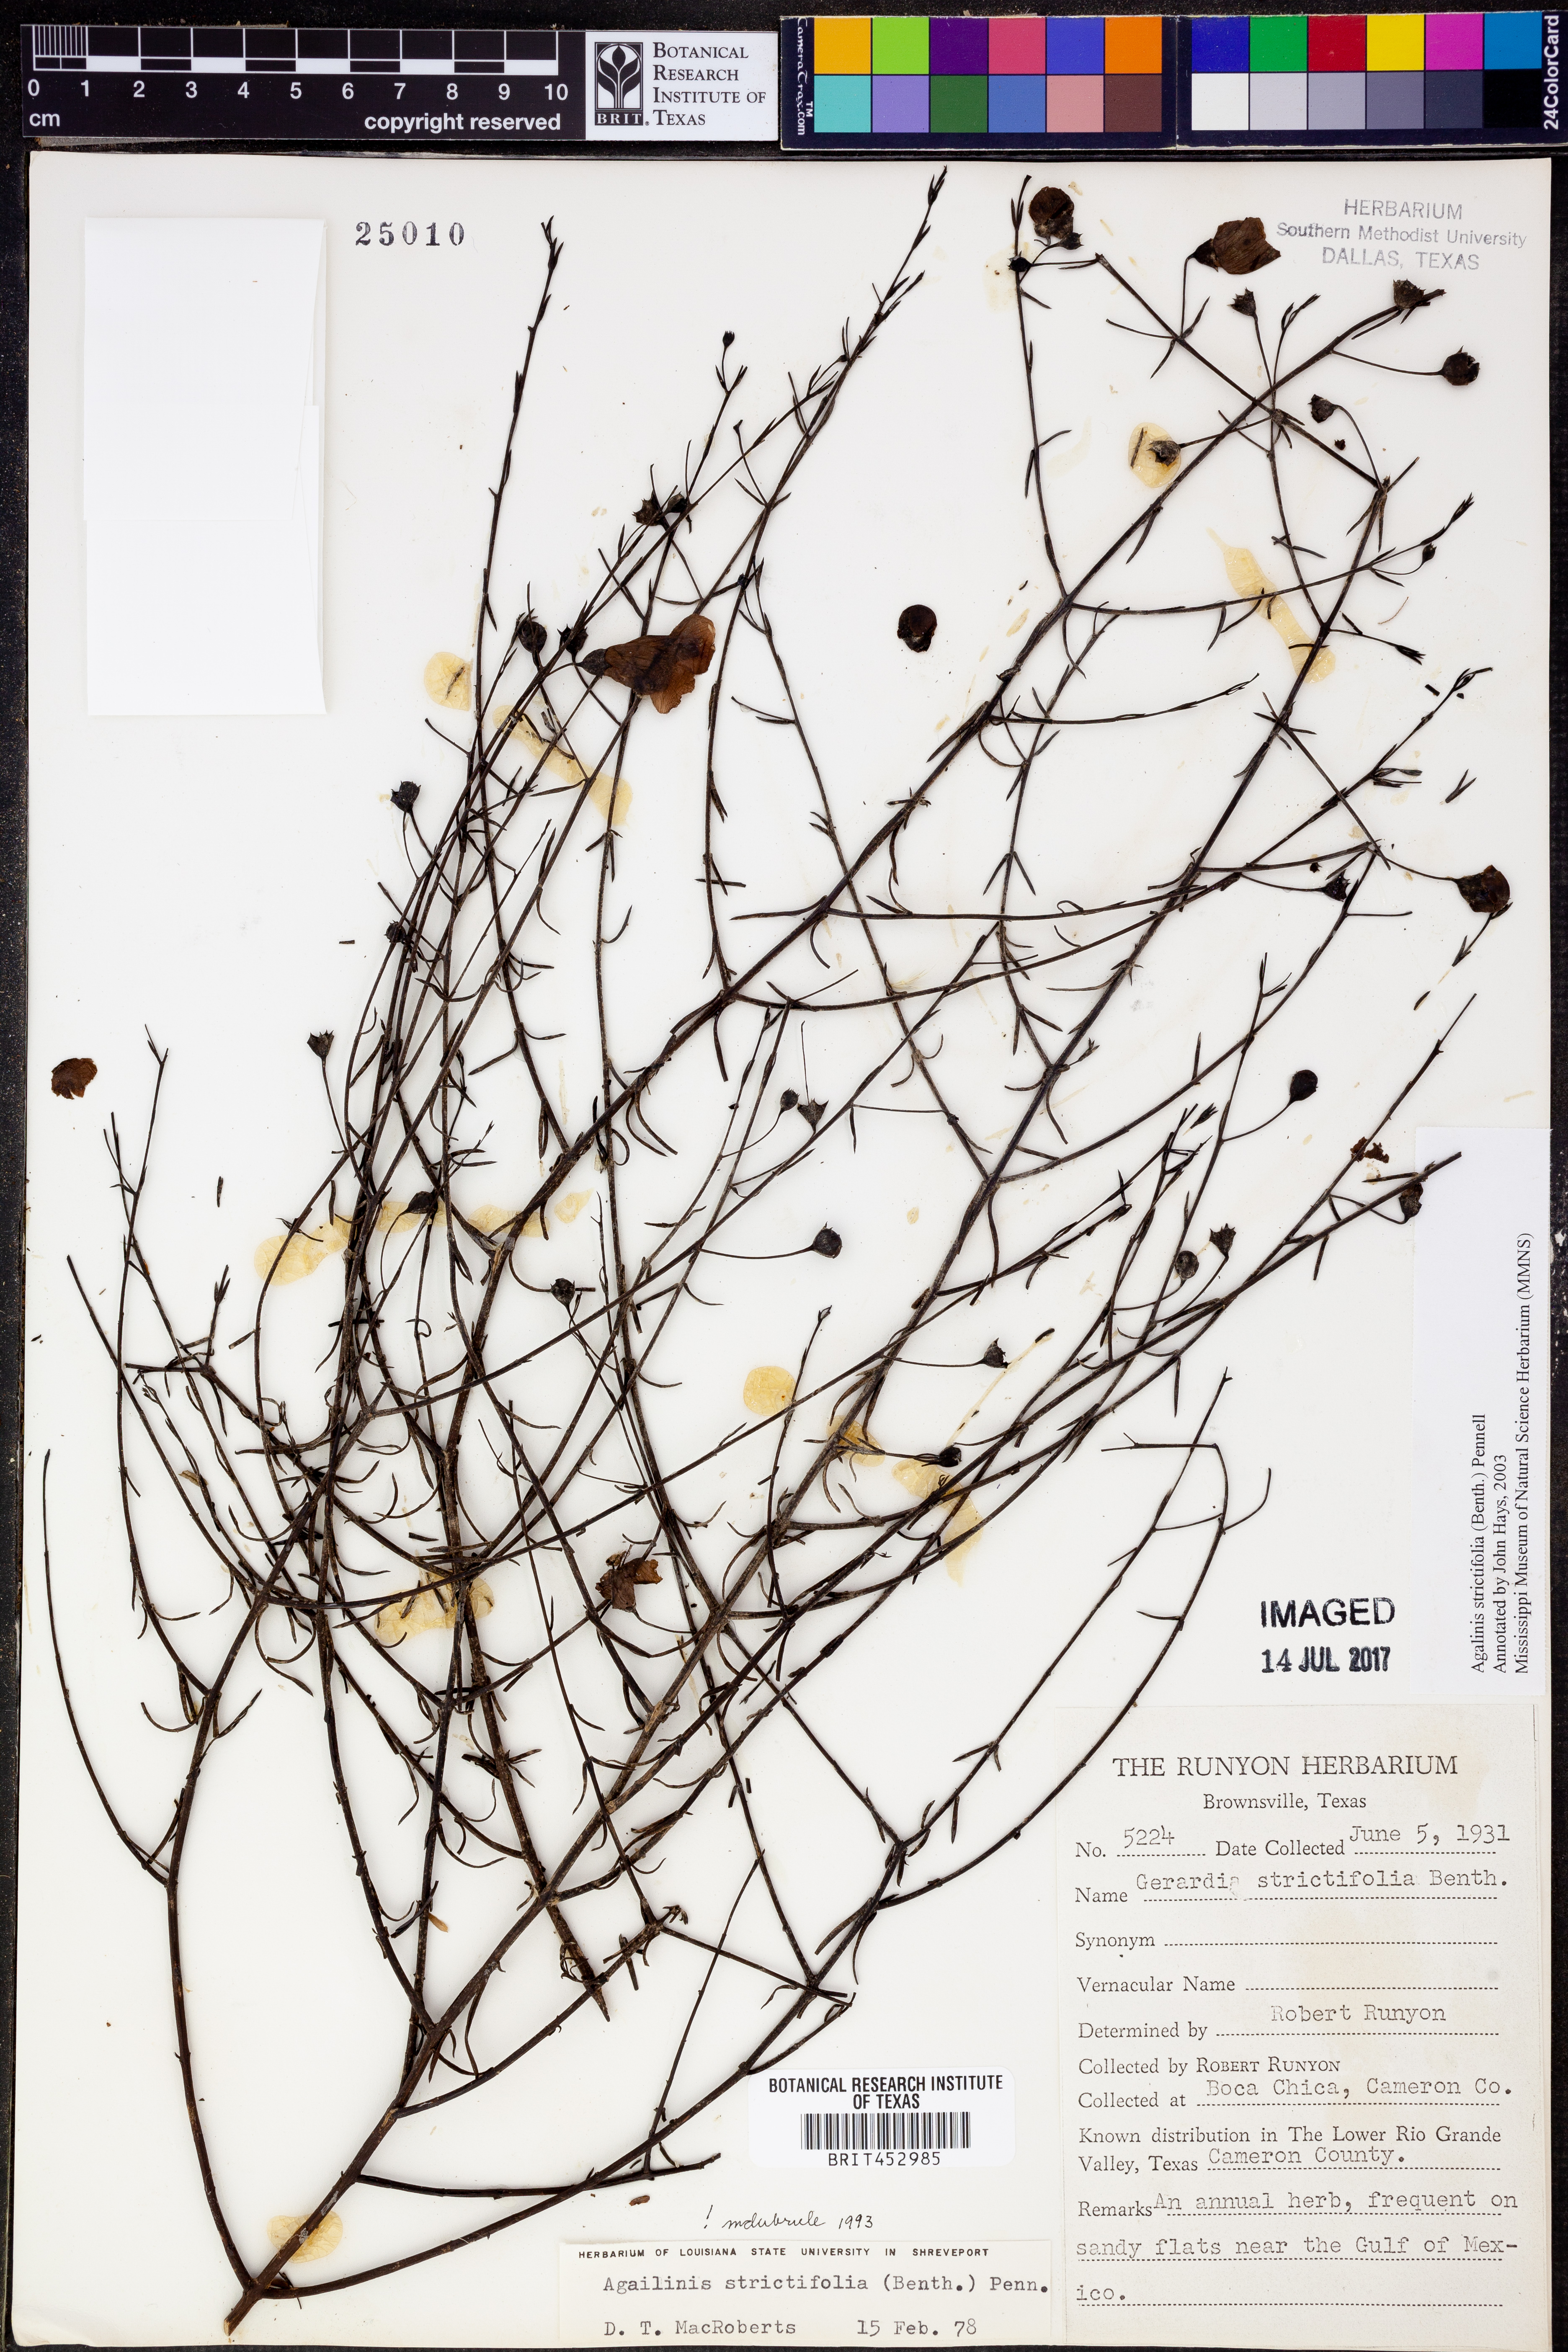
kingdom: Plantae
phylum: Tracheophyta
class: Magnoliopsida
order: Lamiales
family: Orobanchaceae
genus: Agalinis
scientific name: Agalinis strictifolia
